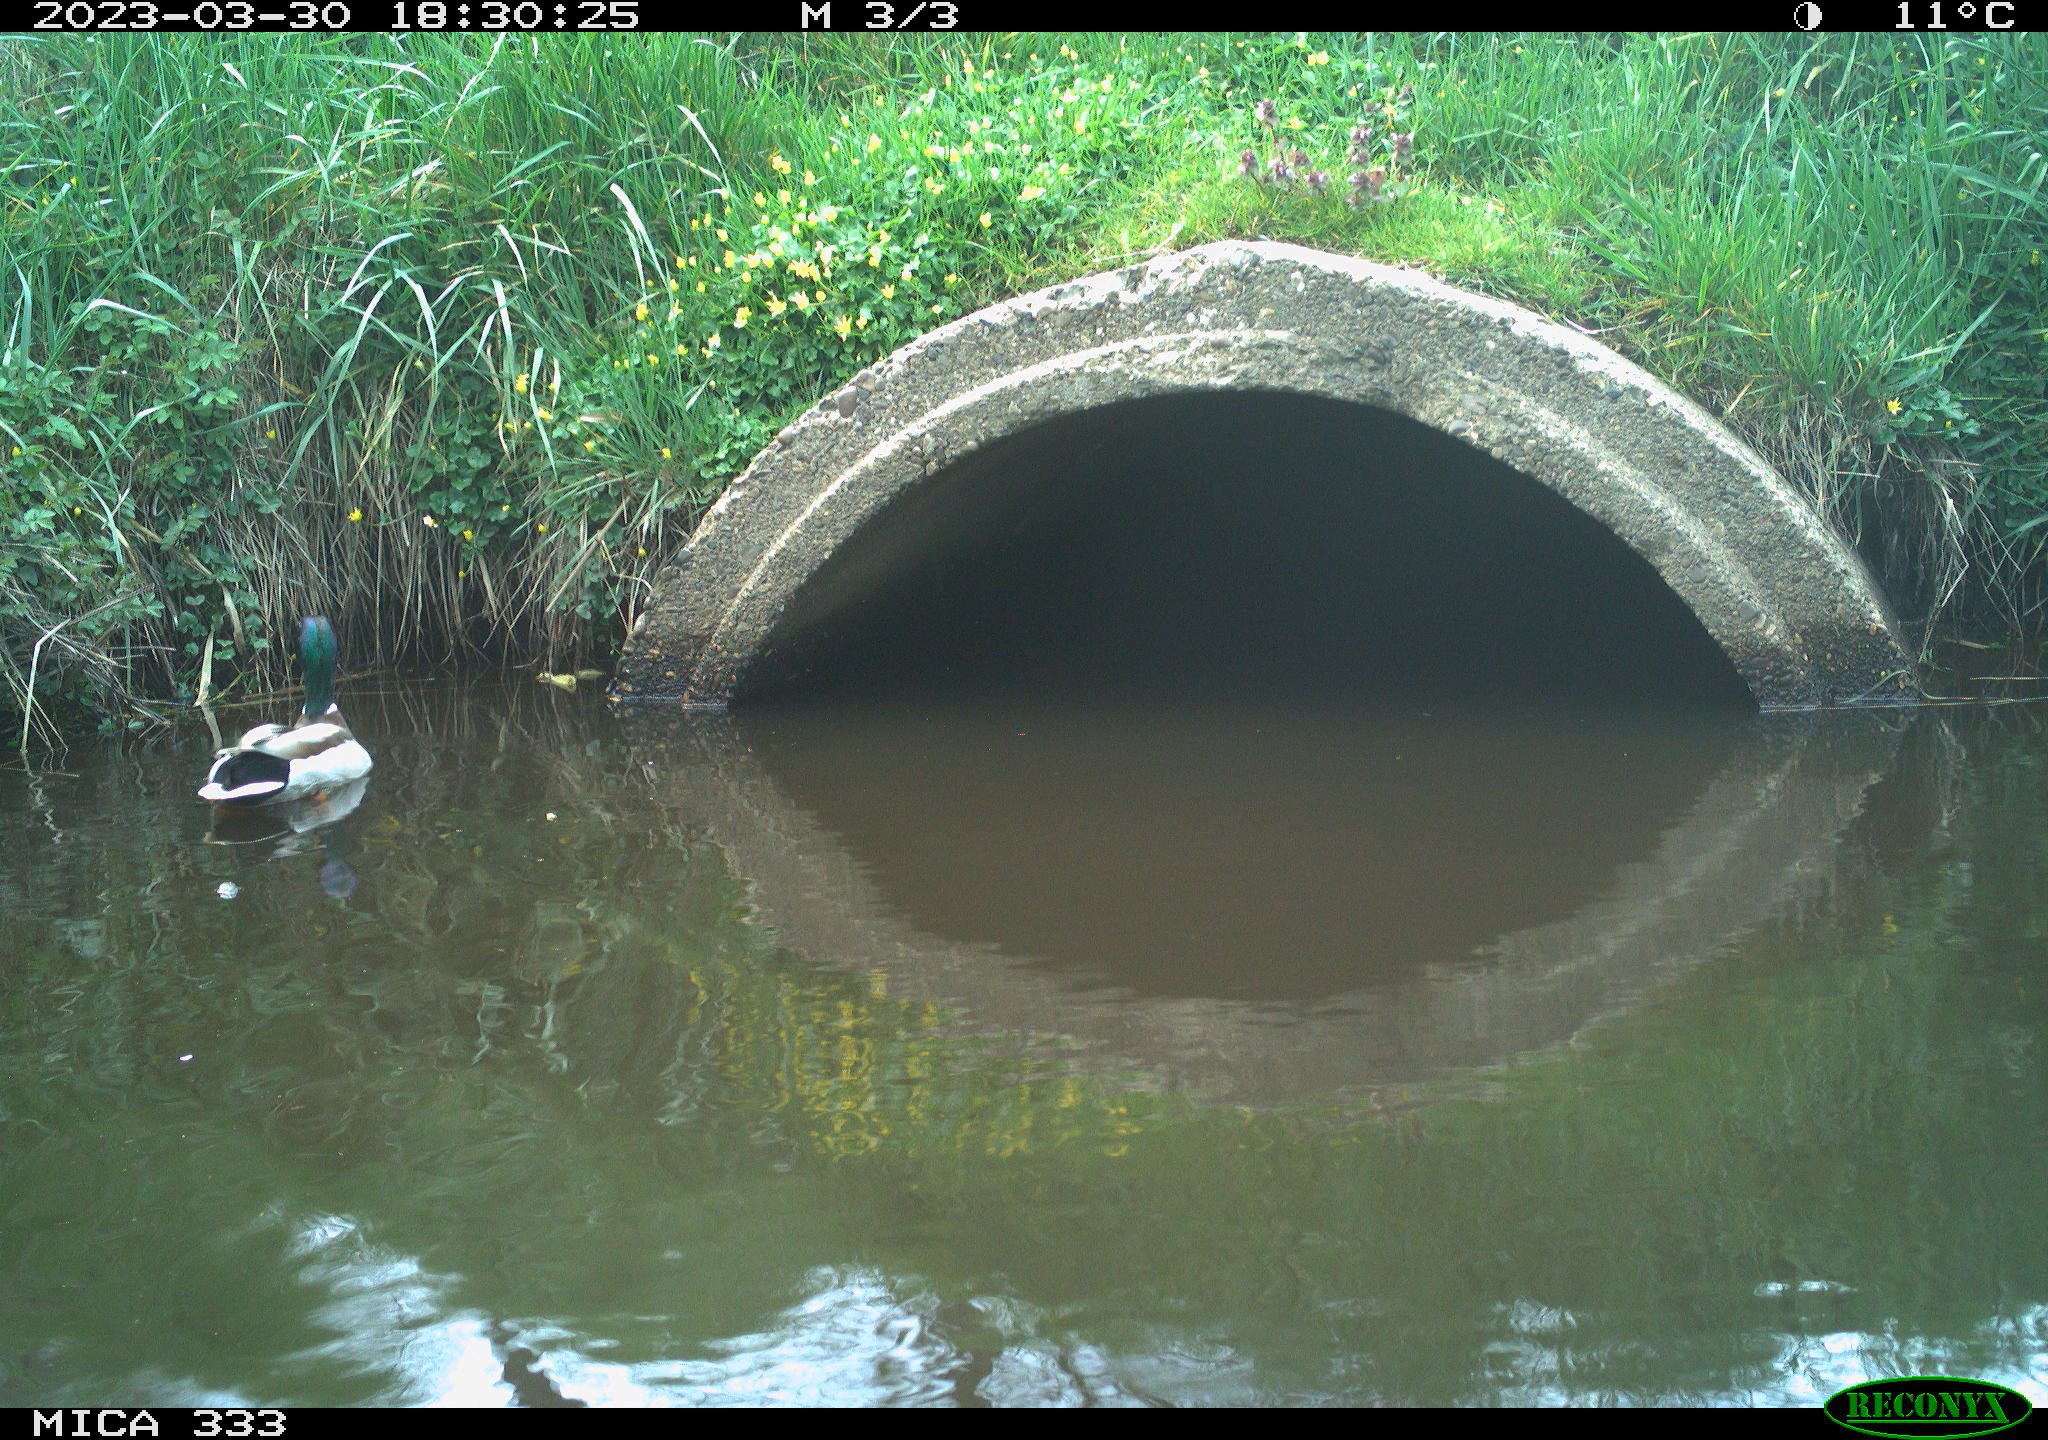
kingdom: Animalia
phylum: Chordata
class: Aves
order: Anseriformes
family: Anatidae
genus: Anas
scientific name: Anas
